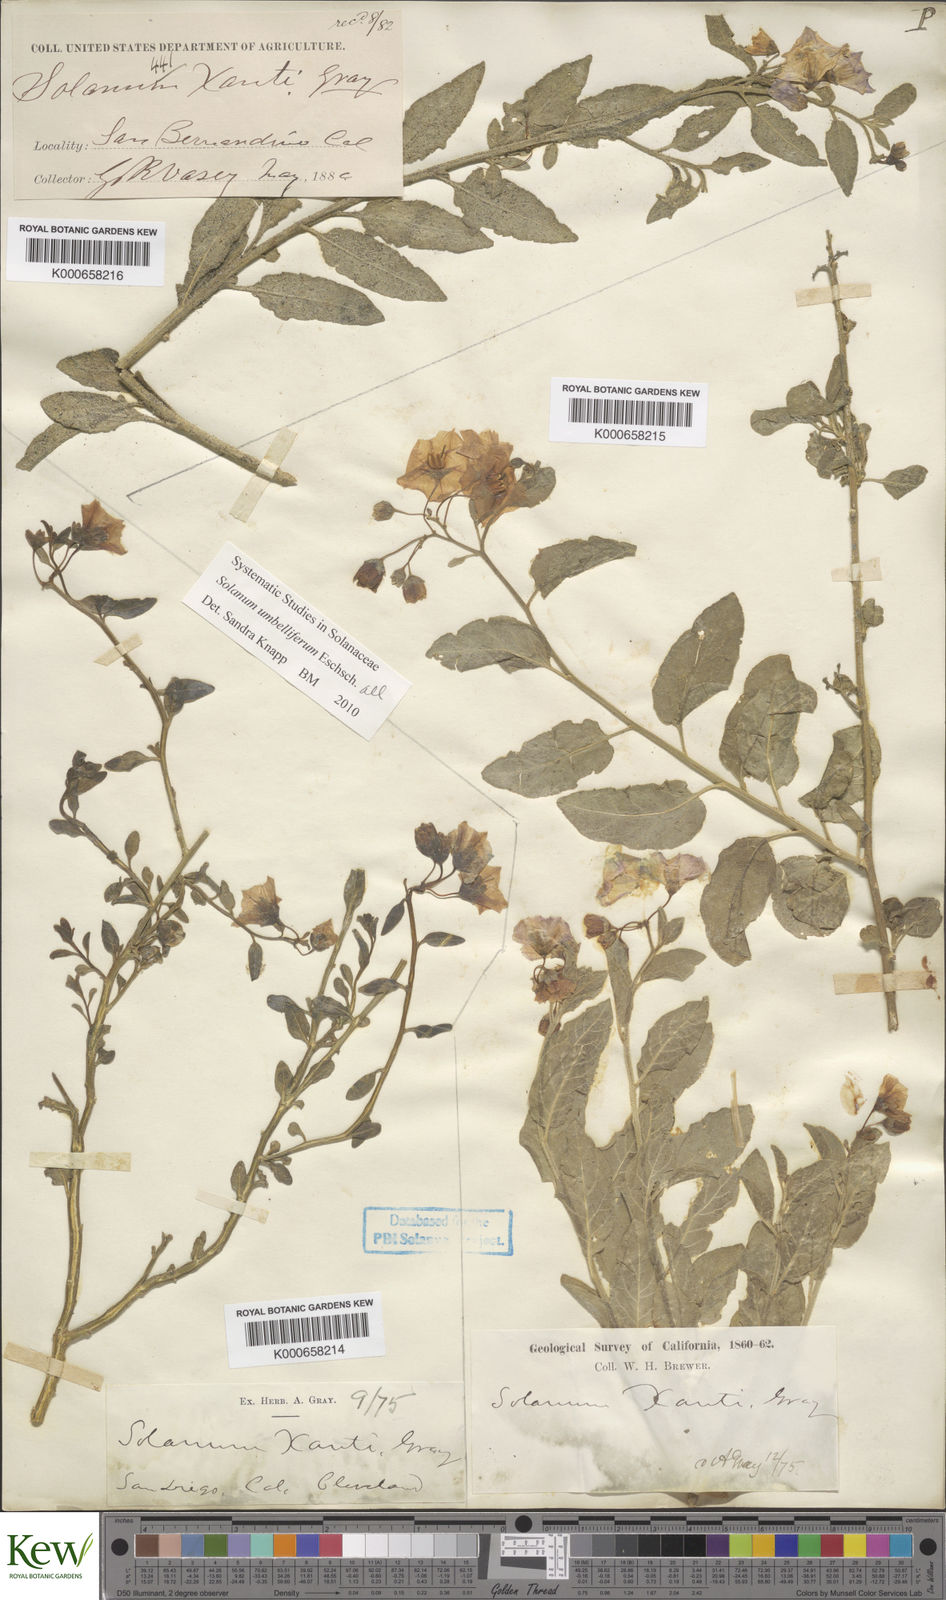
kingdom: Plantae
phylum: Tracheophyta
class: Magnoliopsida
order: Solanales
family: Solanaceae
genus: Solanum
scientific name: Solanum umbelliferum
